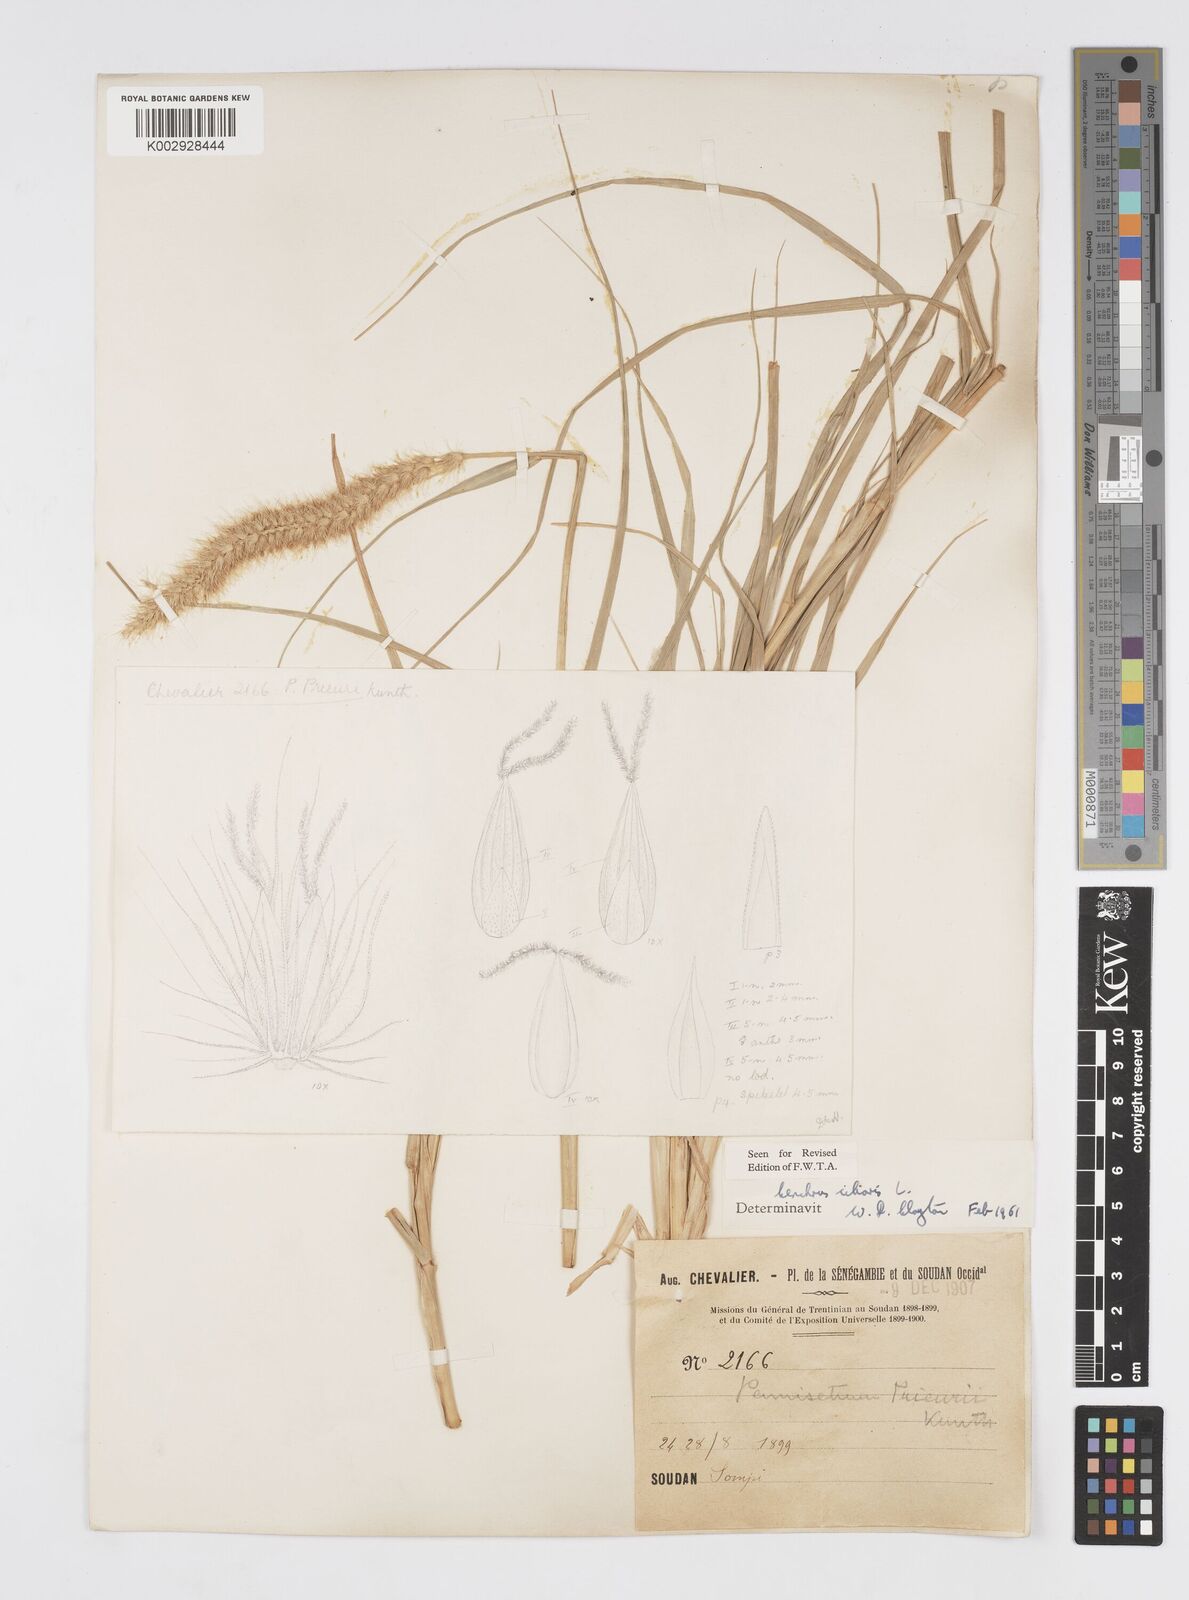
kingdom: Plantae
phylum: Tracheophyta
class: Liliopsida
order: Poales
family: Poaceae
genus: Cenchrus
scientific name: Cenchrus ciliaris
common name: Buffelgrass
